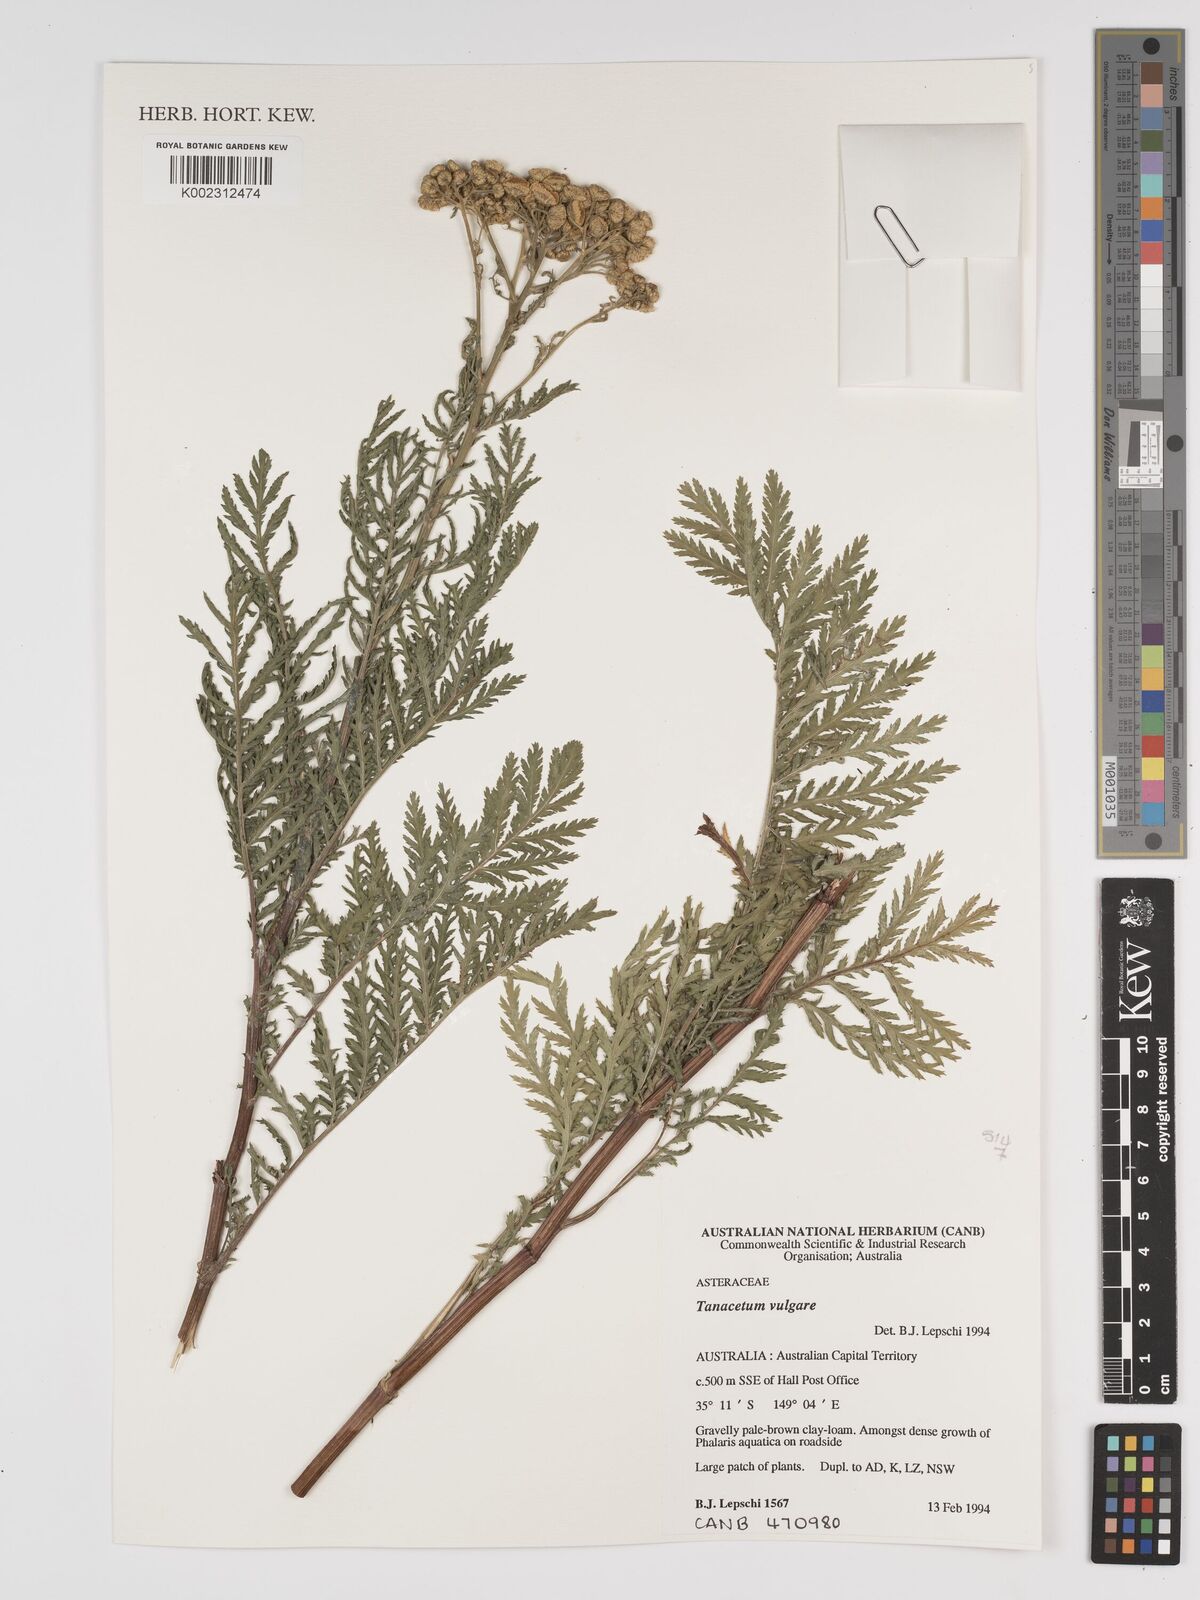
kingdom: Plantae
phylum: Tracheophyta
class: Magnoliopsida
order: Asterales
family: Asteraceae
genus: Tanacetum
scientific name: Tanacetum vulgare
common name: Common tansy
